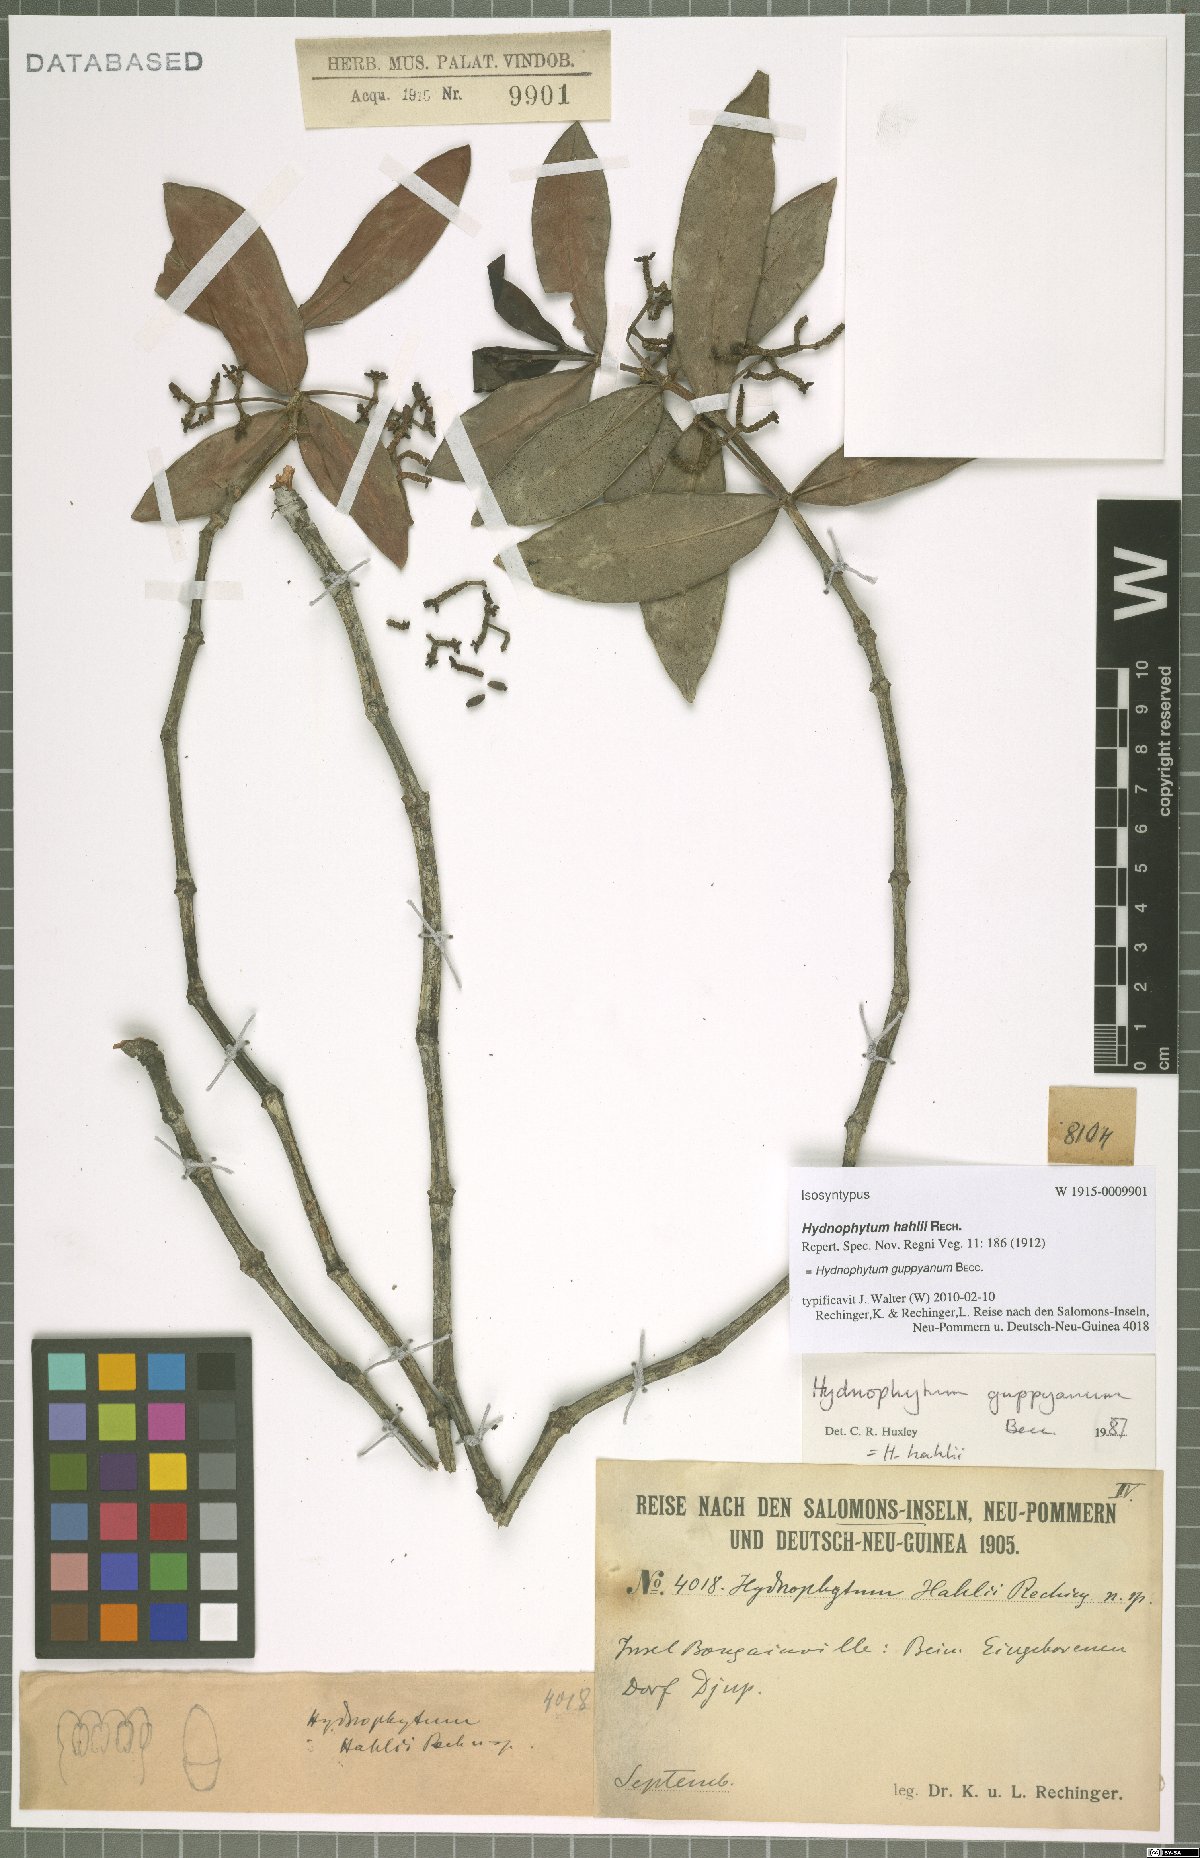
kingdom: Plantae
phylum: Tracheophyta
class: Magnoliopsida
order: Gentianales
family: Rubiaceae
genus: Squamellaria
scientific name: Squamellaria guppyana
